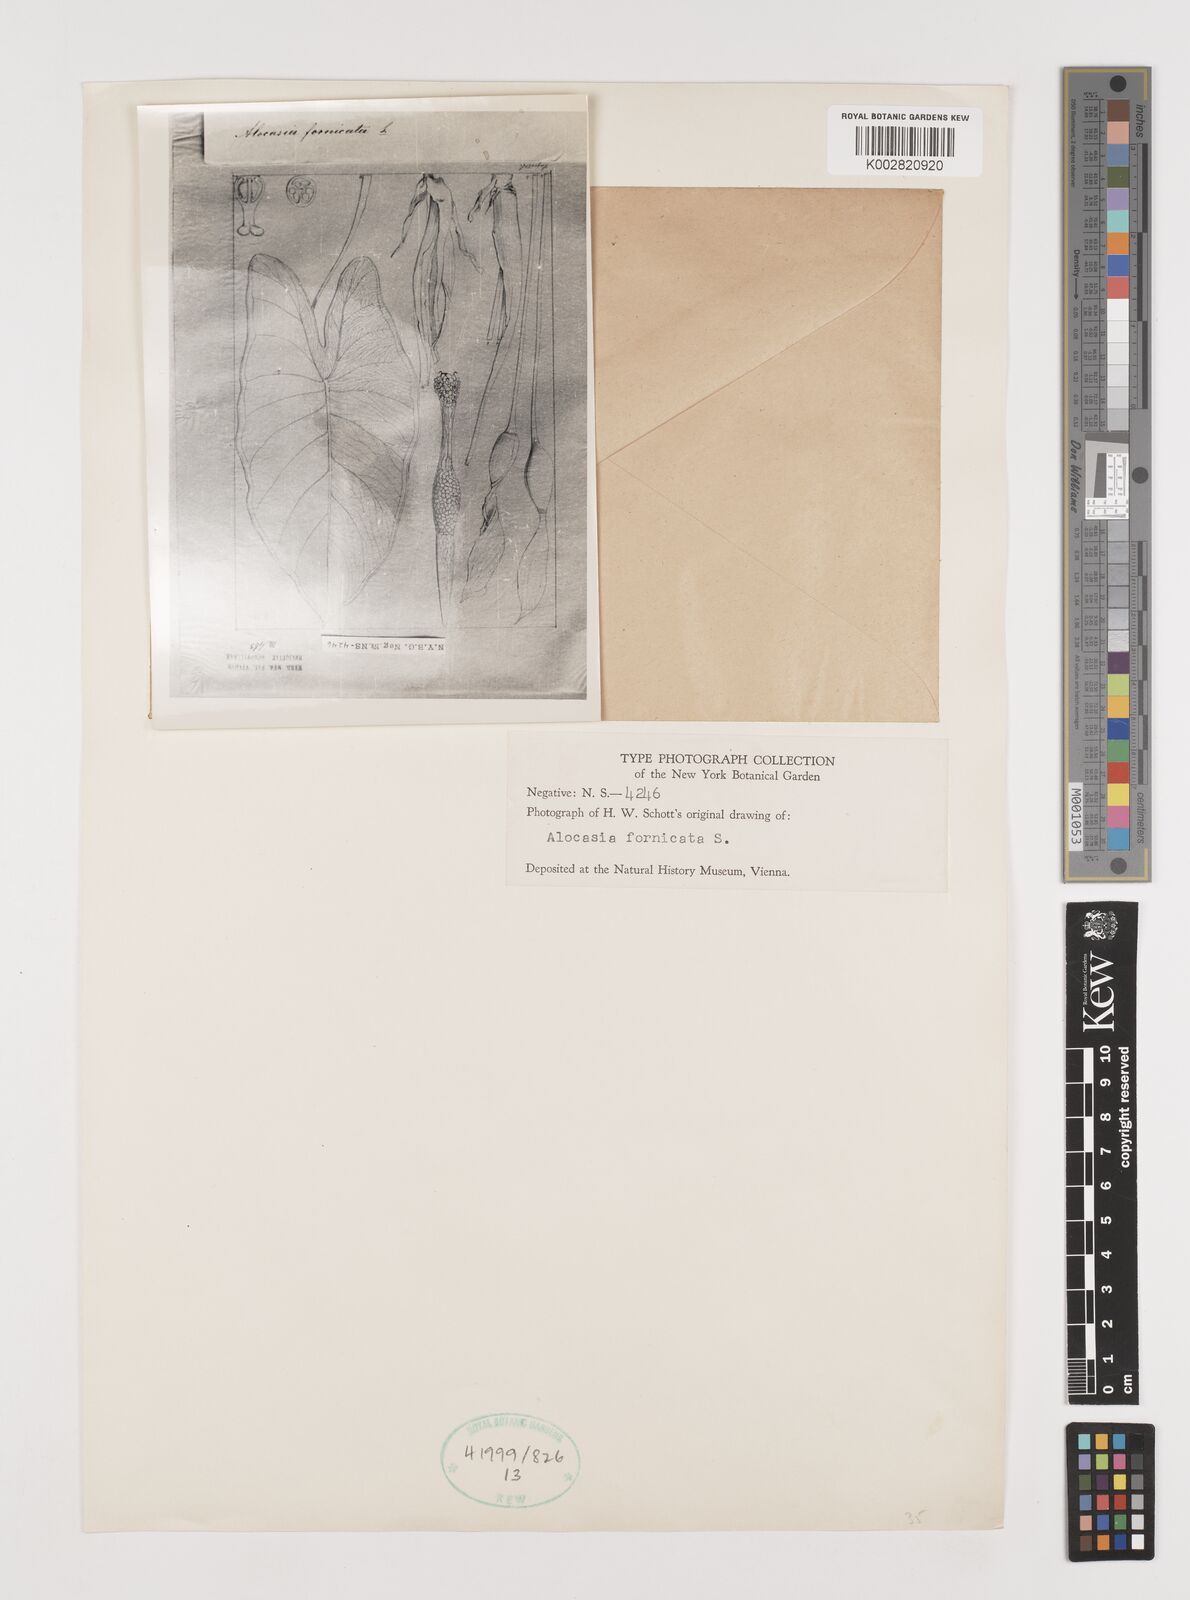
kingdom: Plantae
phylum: Tracheophyta
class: Liliopsida
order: Alismatales
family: Araceae
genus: Alocasia
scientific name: Alocasia fornicata
